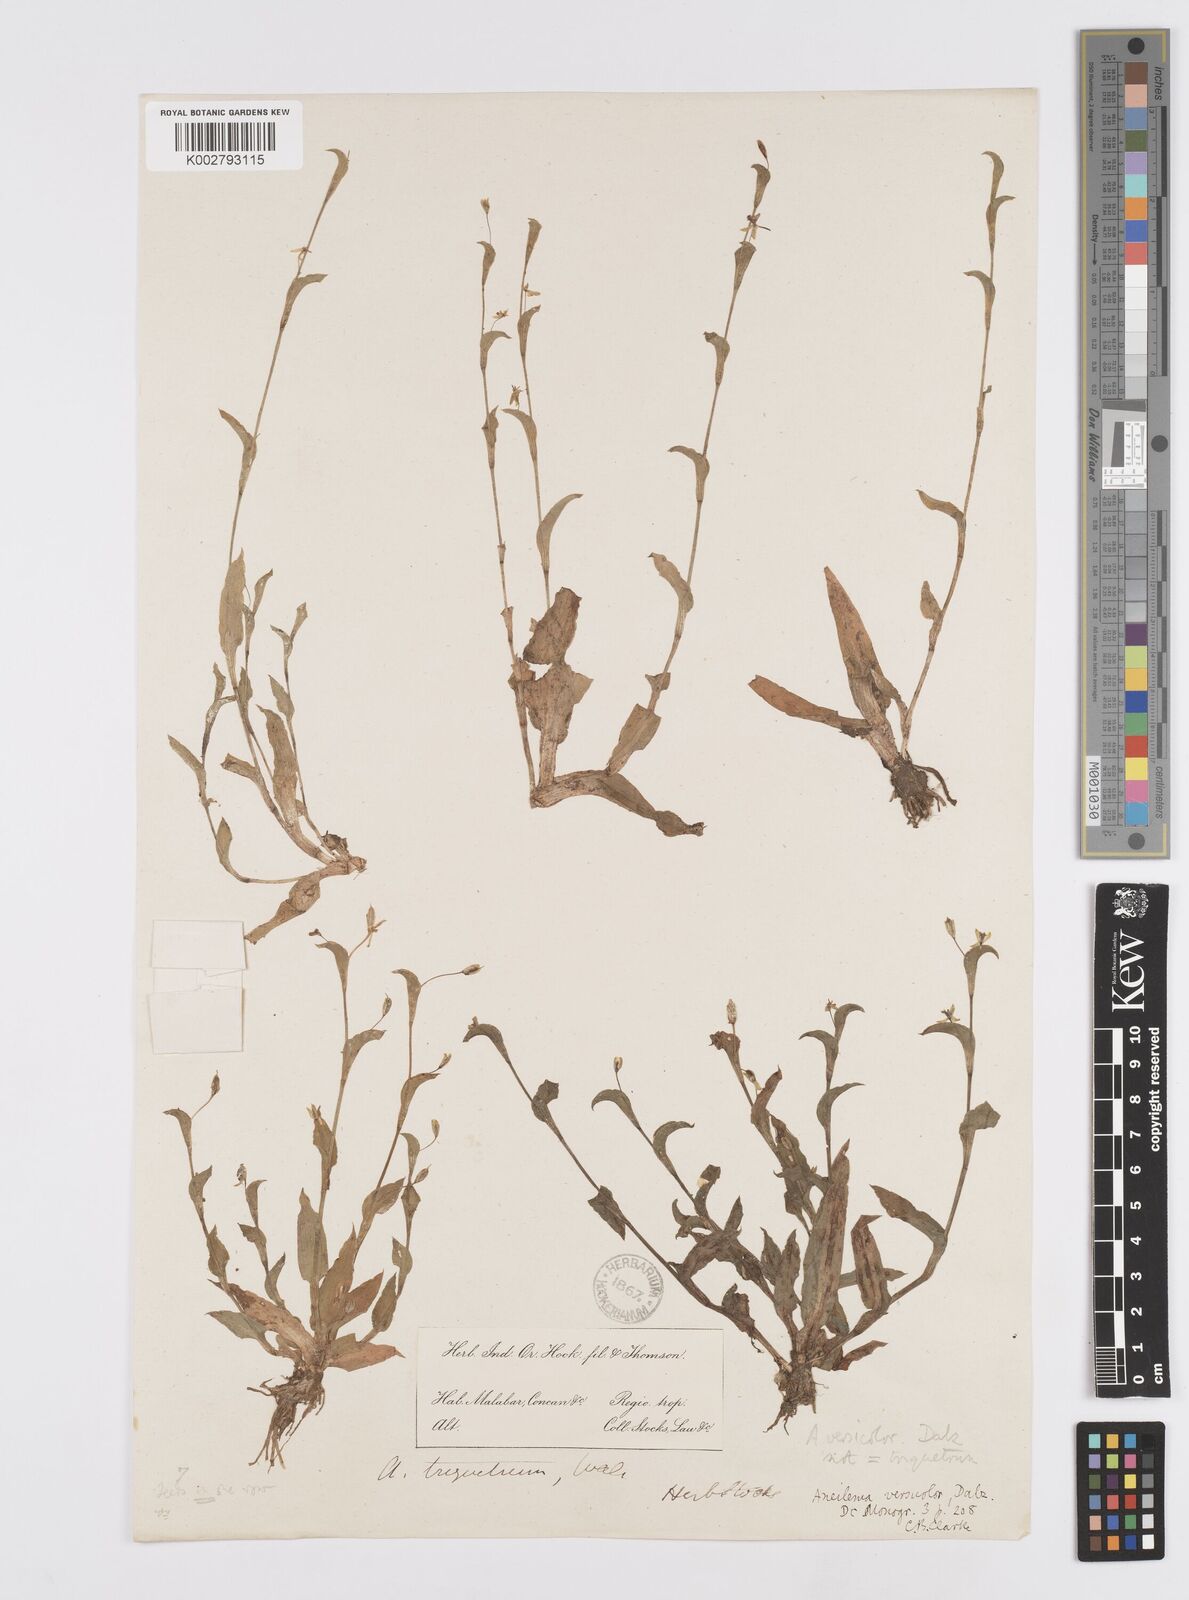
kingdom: Plantae
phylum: Tracheophyta
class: Liliopsida
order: Commelinales
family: Commelinaceae
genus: Murdannia
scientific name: Murdannia versicolor
